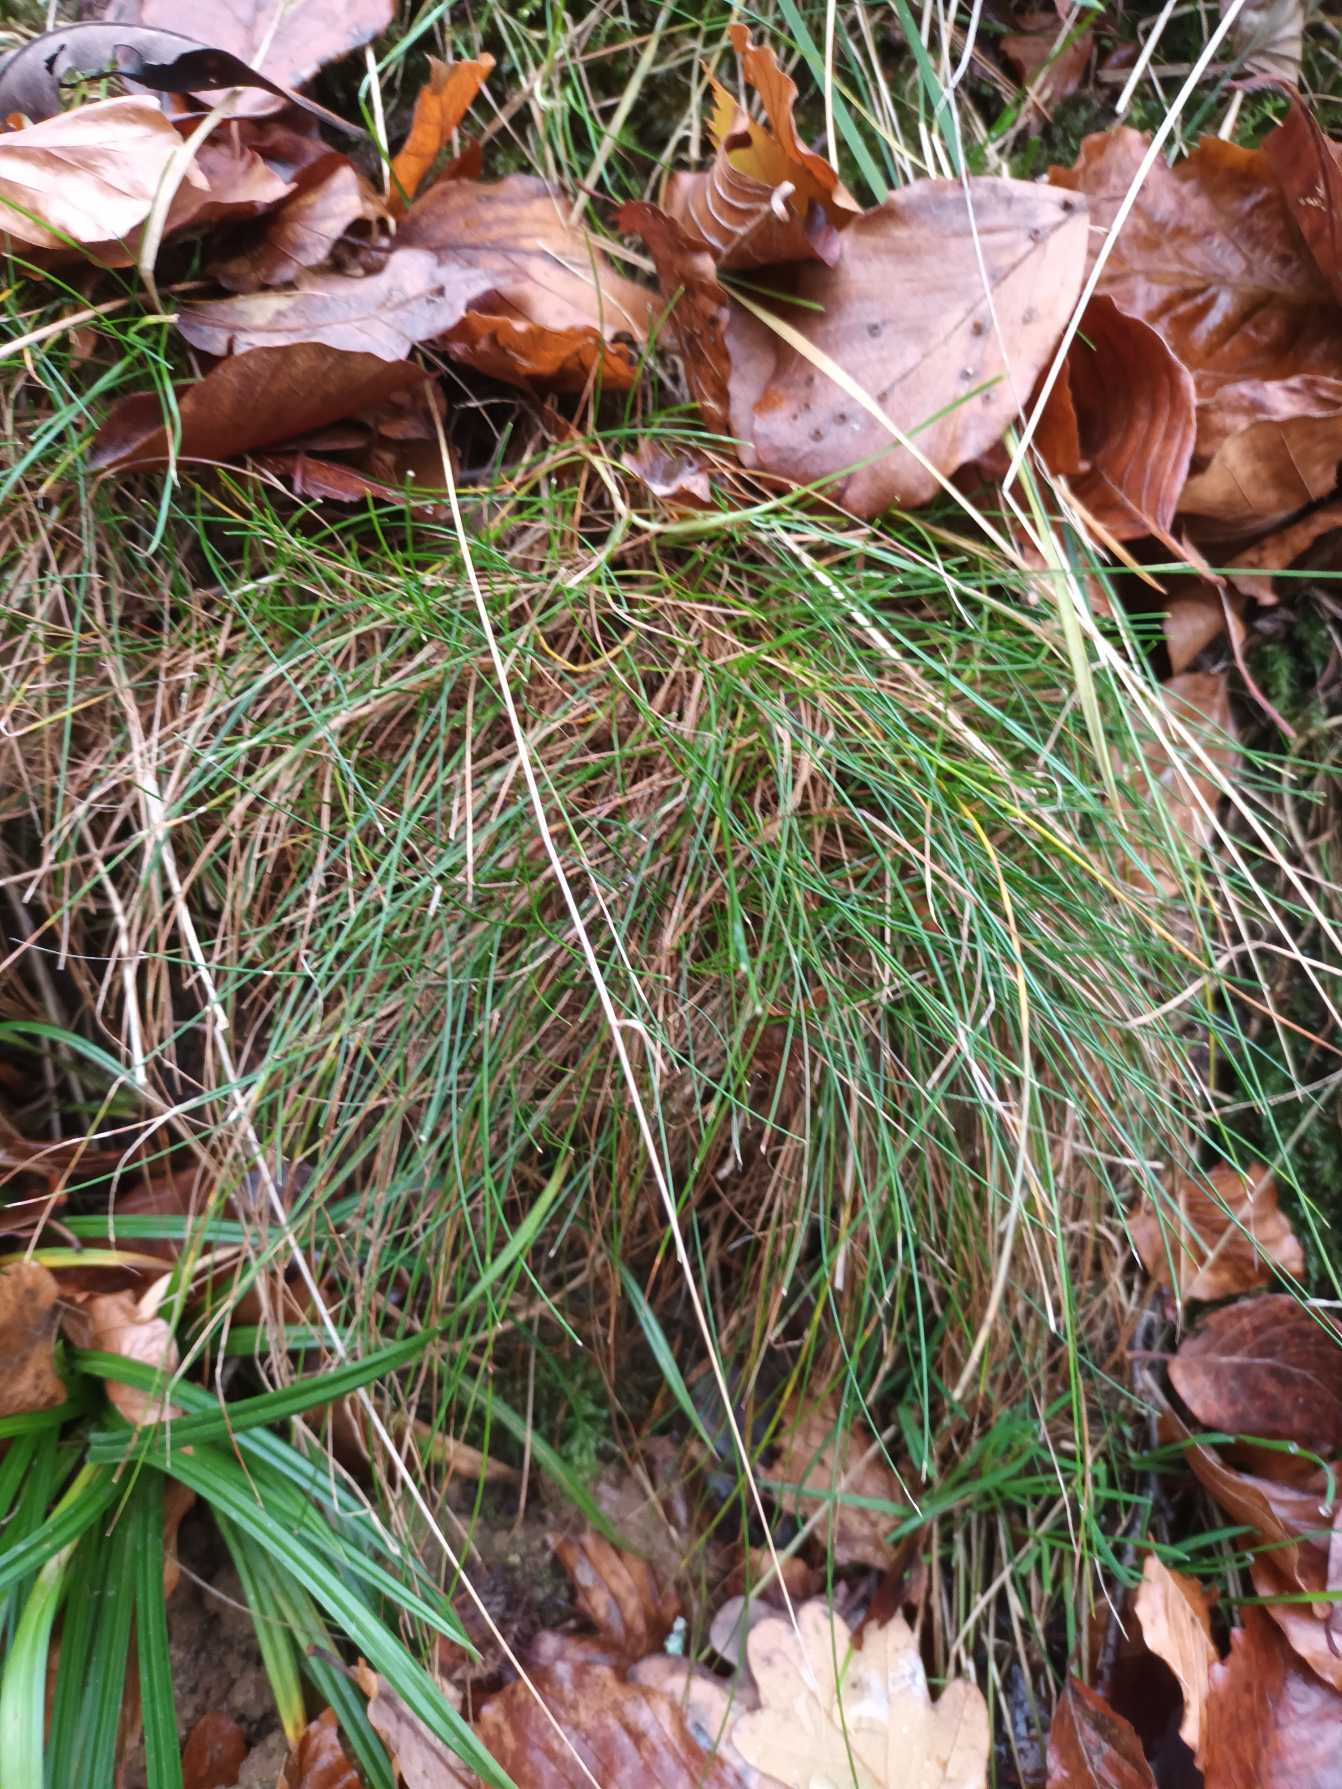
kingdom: Plantae
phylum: Tracheophyta
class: Liliopsida
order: Poales
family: Poaceae
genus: Avenella
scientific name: Avenella flexuosa
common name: Bølget bunke
